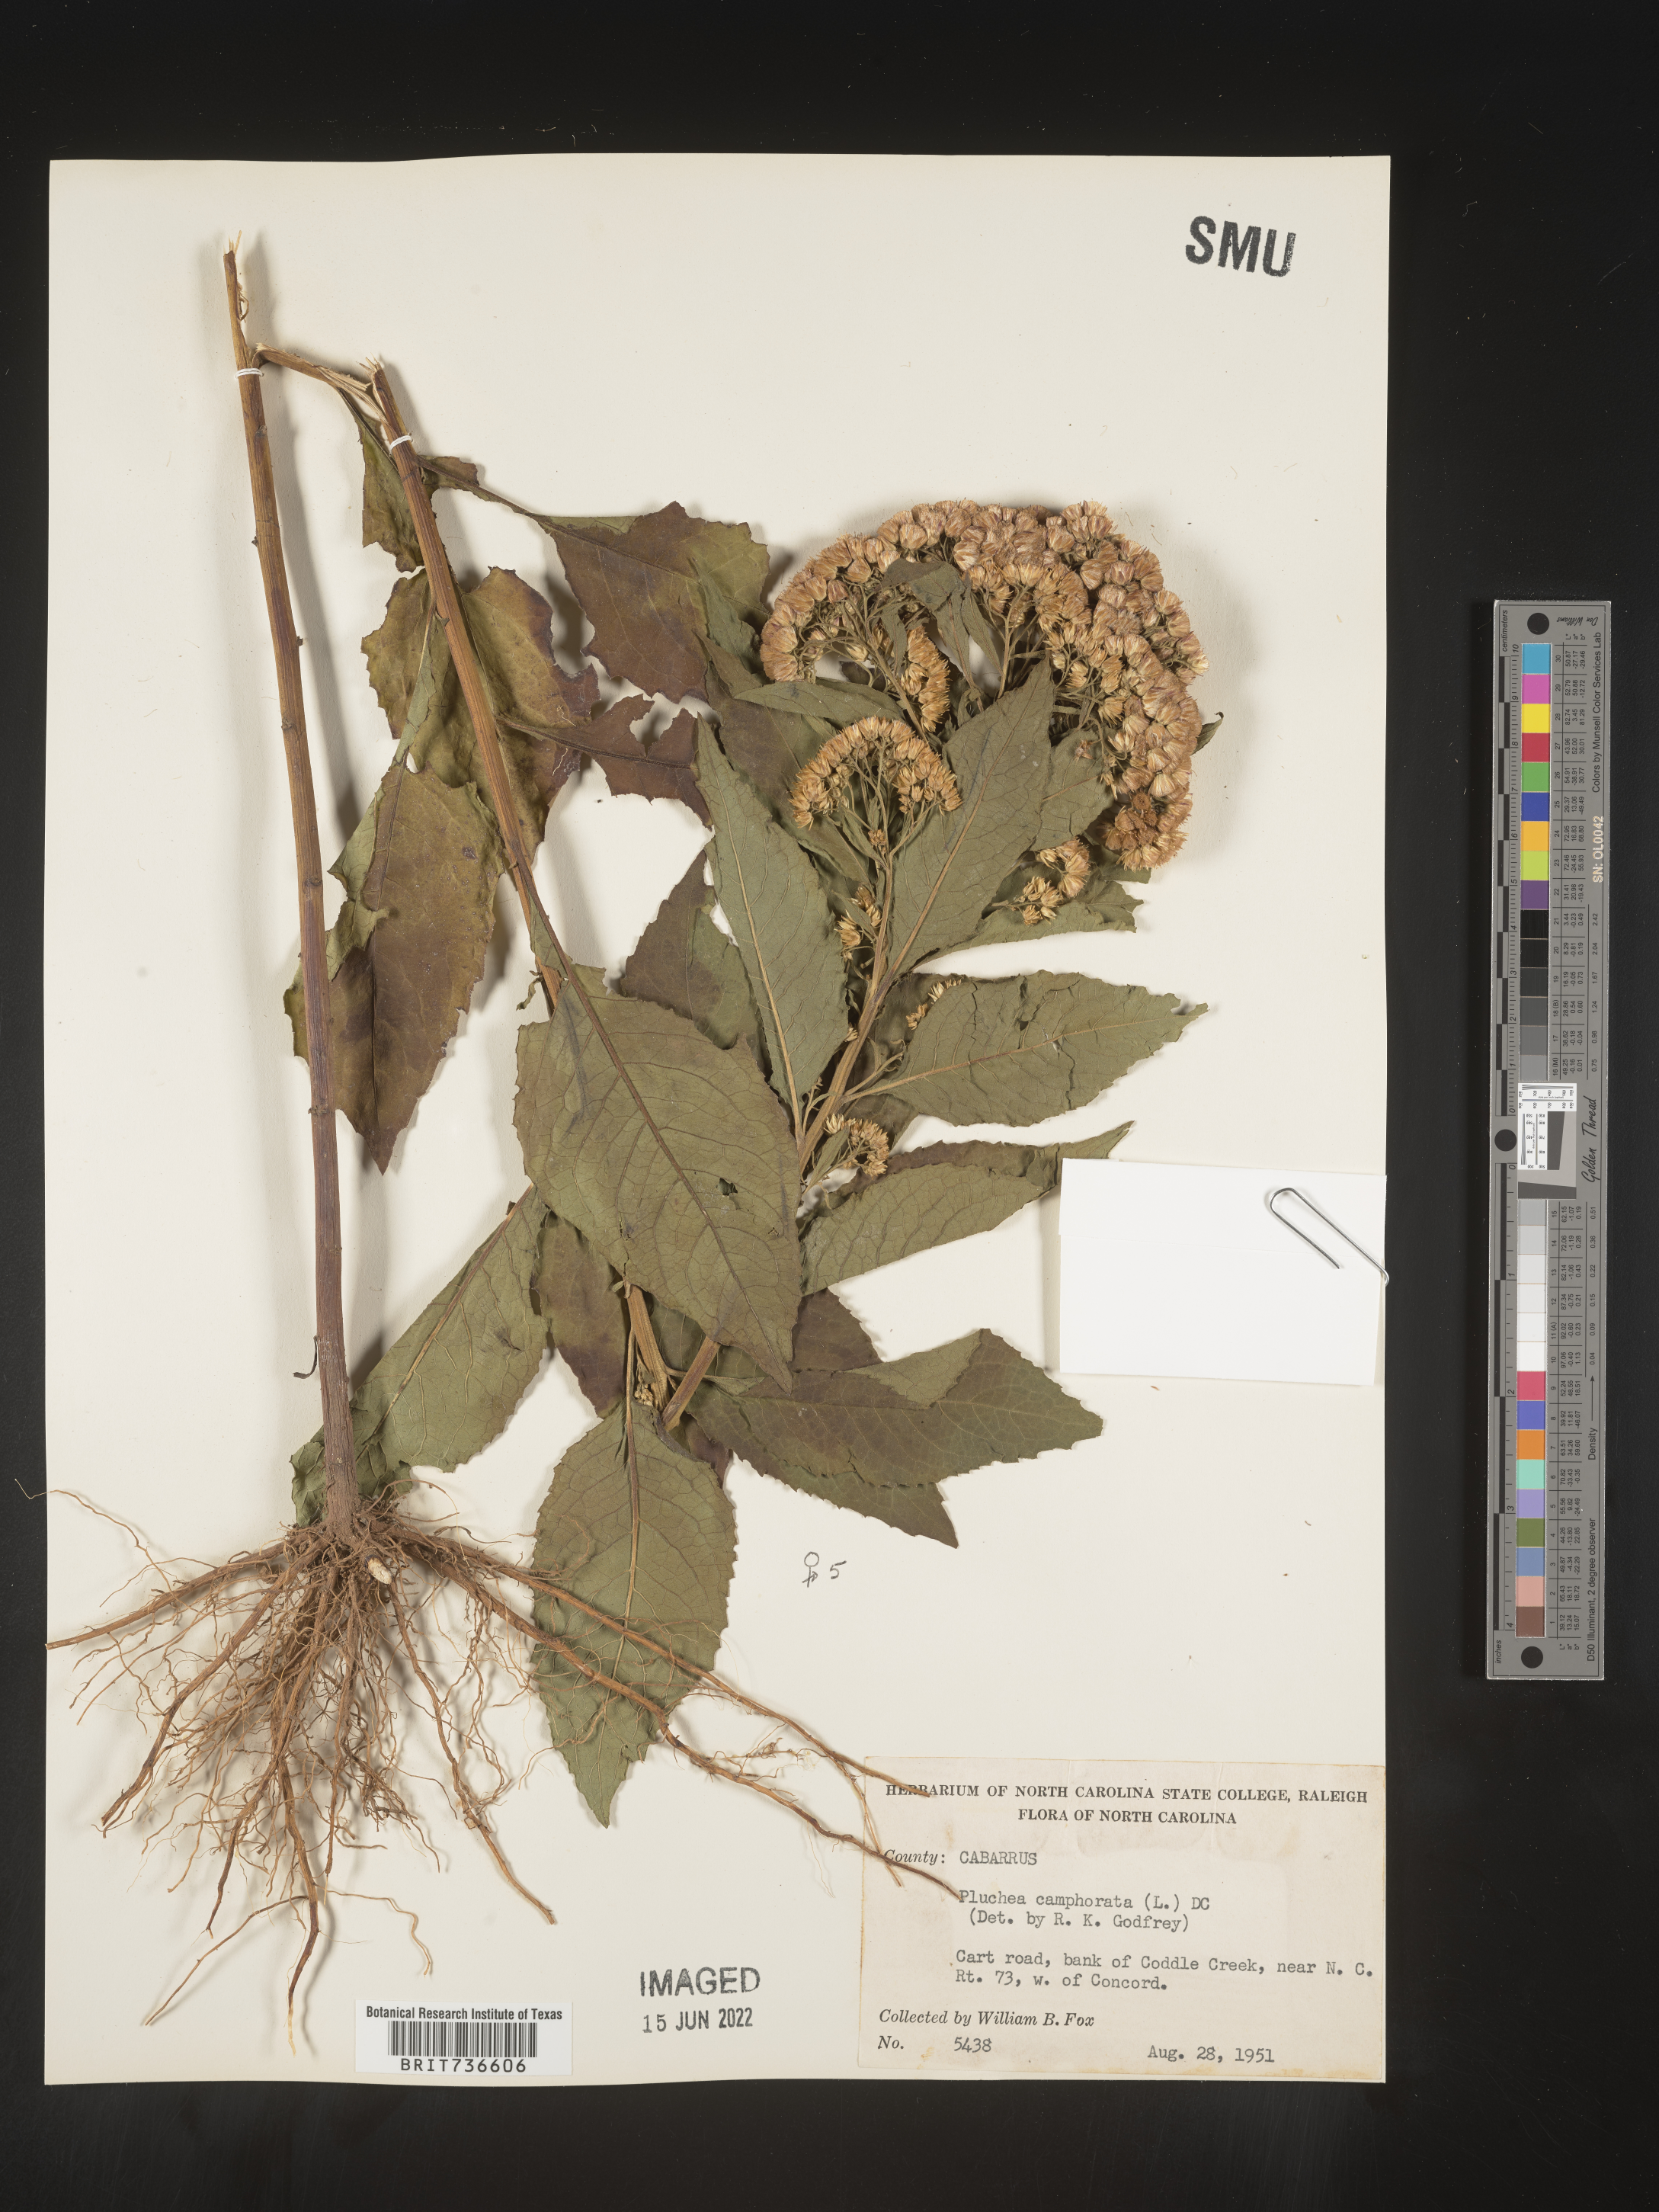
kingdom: Plantae
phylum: Tracheophyta
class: Magnoliopsida
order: Asterales
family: Asteraceae
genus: Pluchea
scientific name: Pluchea camphorata
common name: Camphor pluchea
